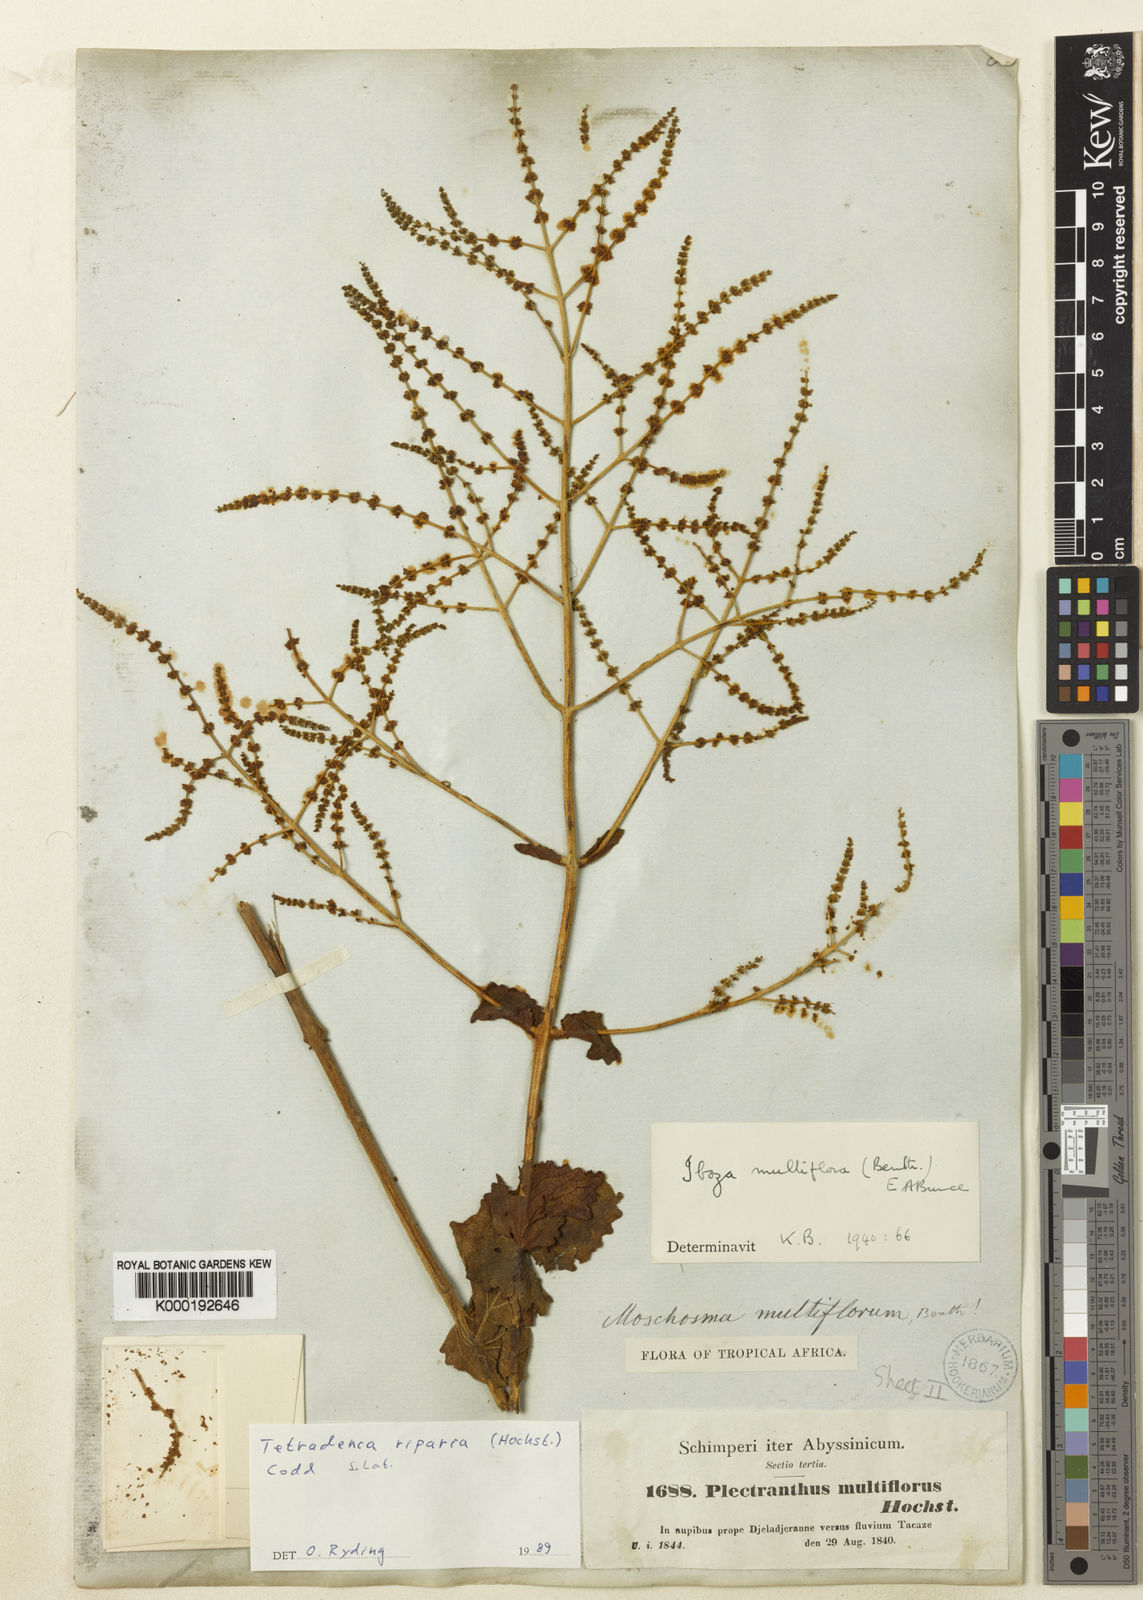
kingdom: Plantae
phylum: Tracheophyta
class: Magnoliopsida
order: Lamiales
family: Lamiaceae
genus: Tetradenia
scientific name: Tetradenia multiflora
